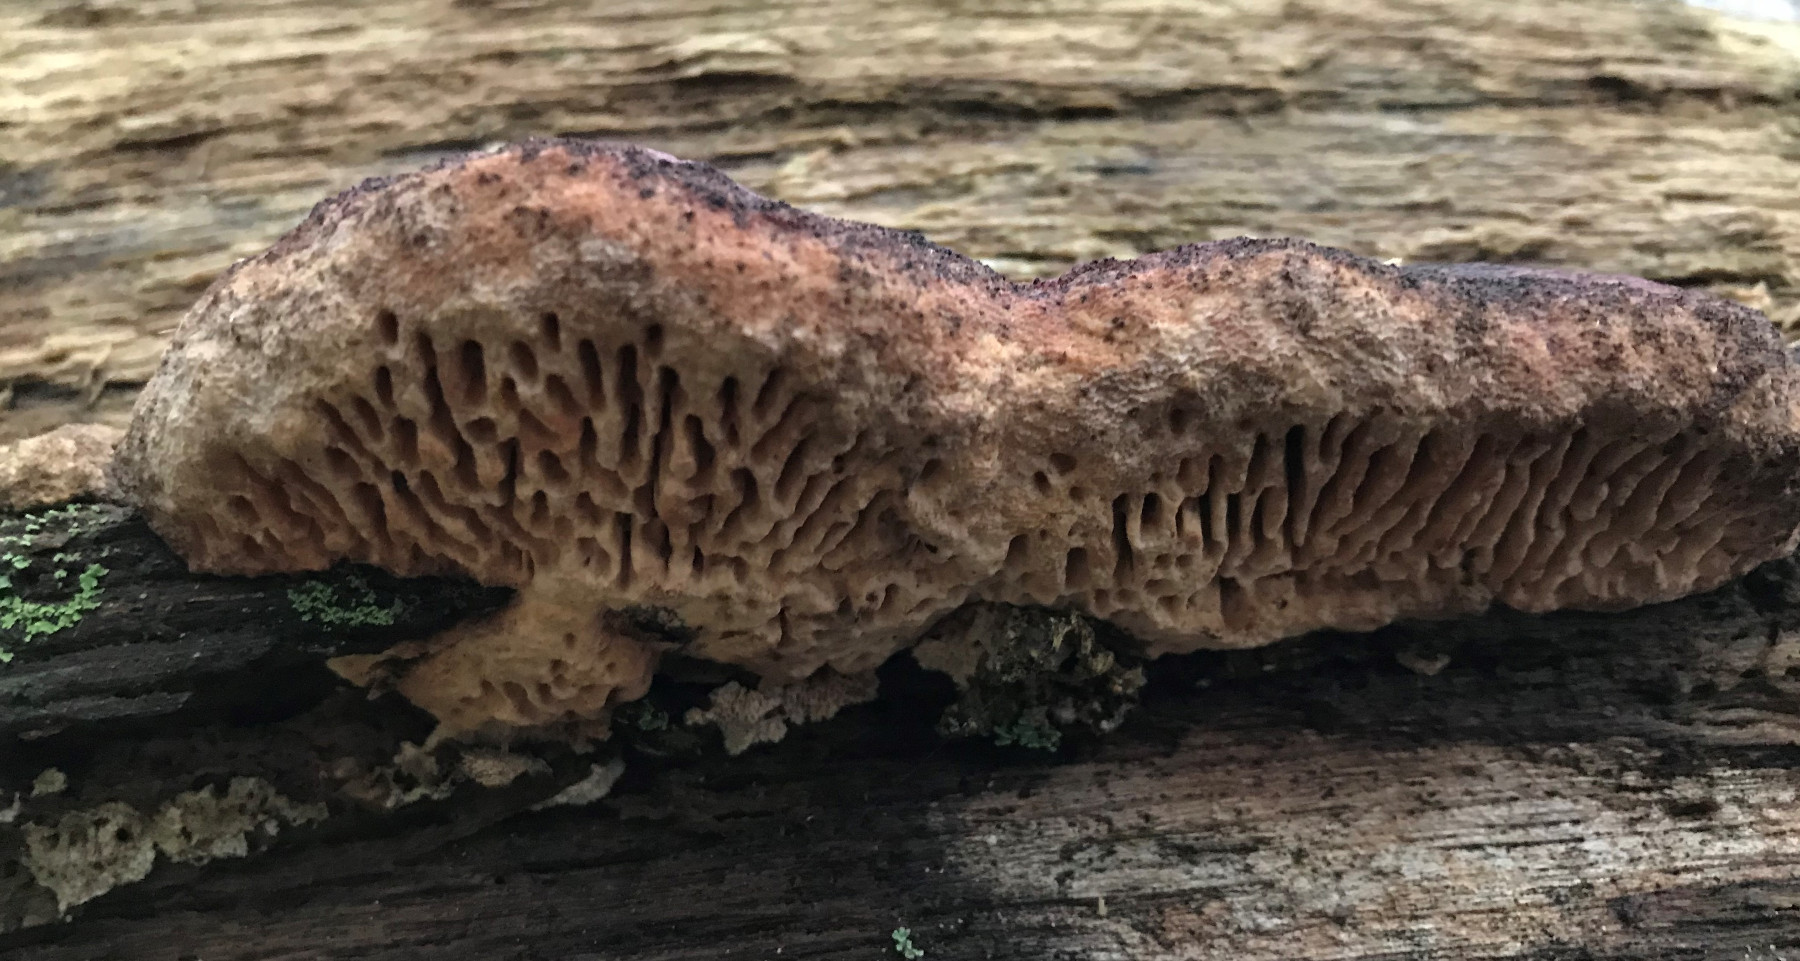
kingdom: Fungi
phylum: Basidiomycota
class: Agaricomycetes
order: Polyporales
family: Fomitopsidaceae
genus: Daedalea
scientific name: Daedalea quercina
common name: ege-labyrintsvamp
